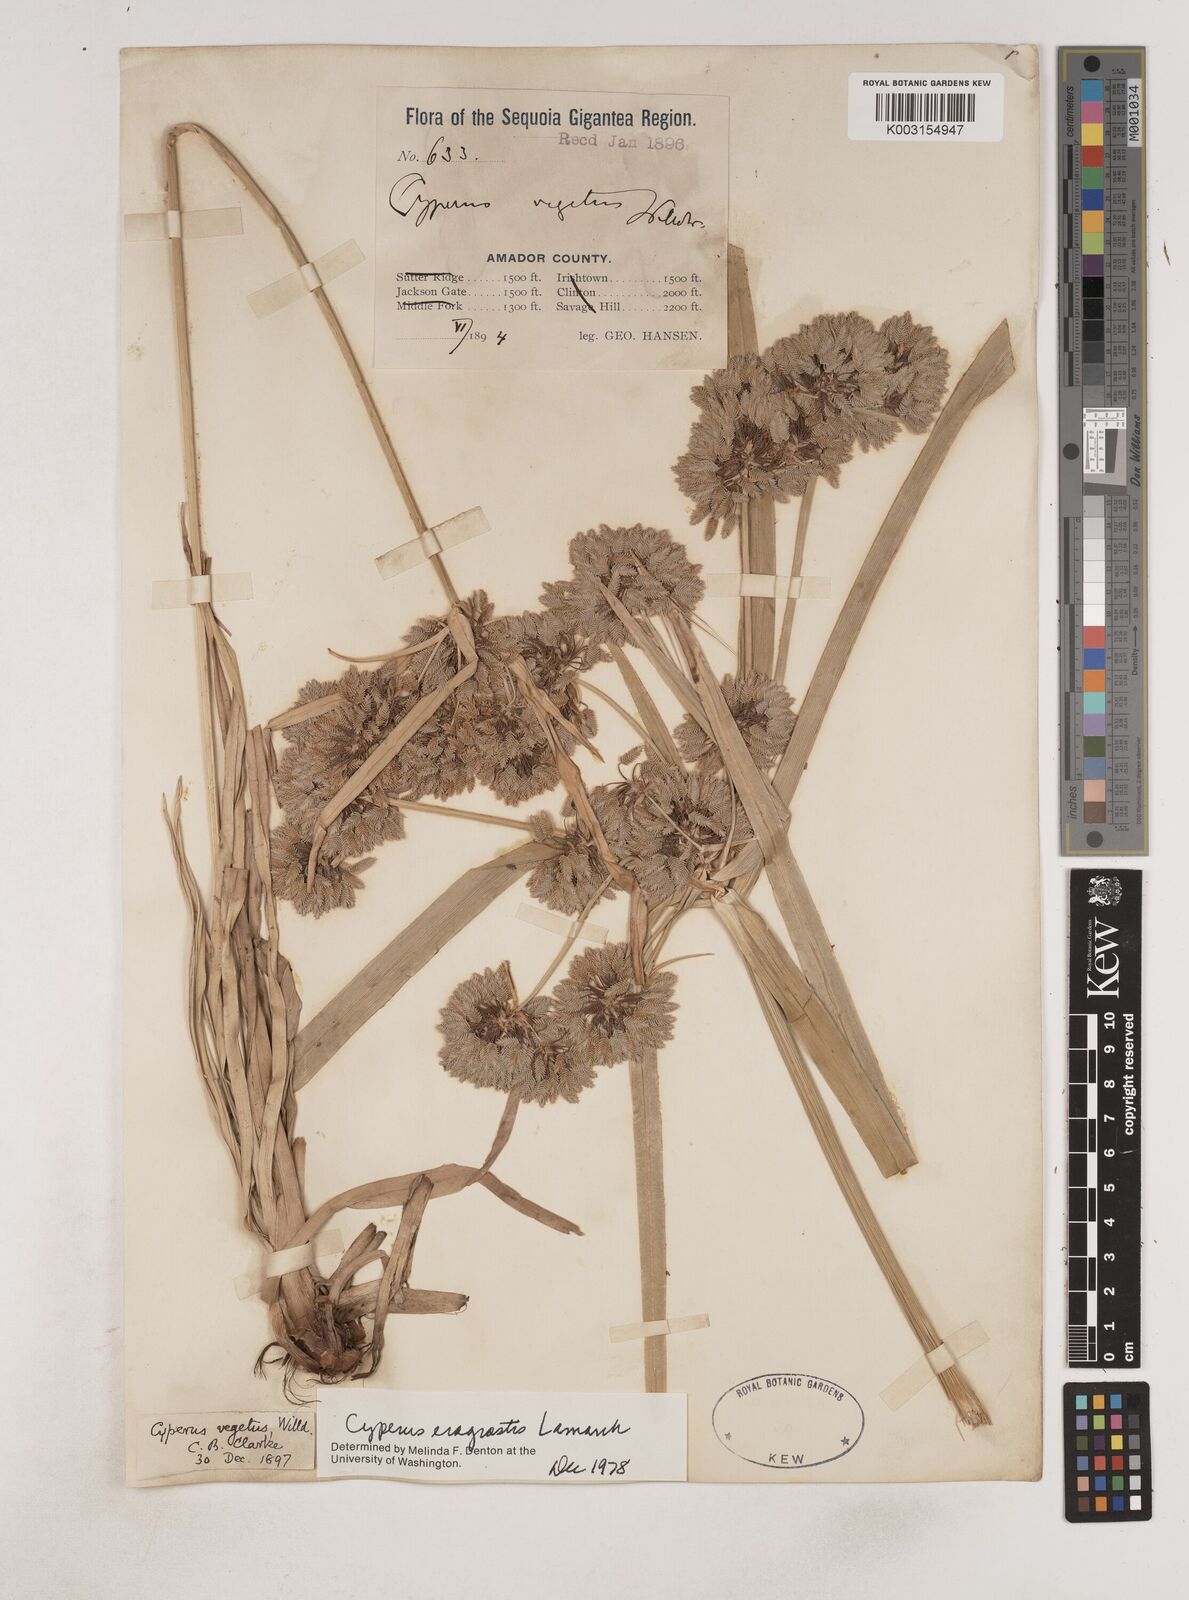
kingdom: Plantae
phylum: Tracheophyta
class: Liliopsida
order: Poales
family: Cyperaceae
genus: Cyperus
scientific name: Cyperus eragrostis
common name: Tall flatsedge
